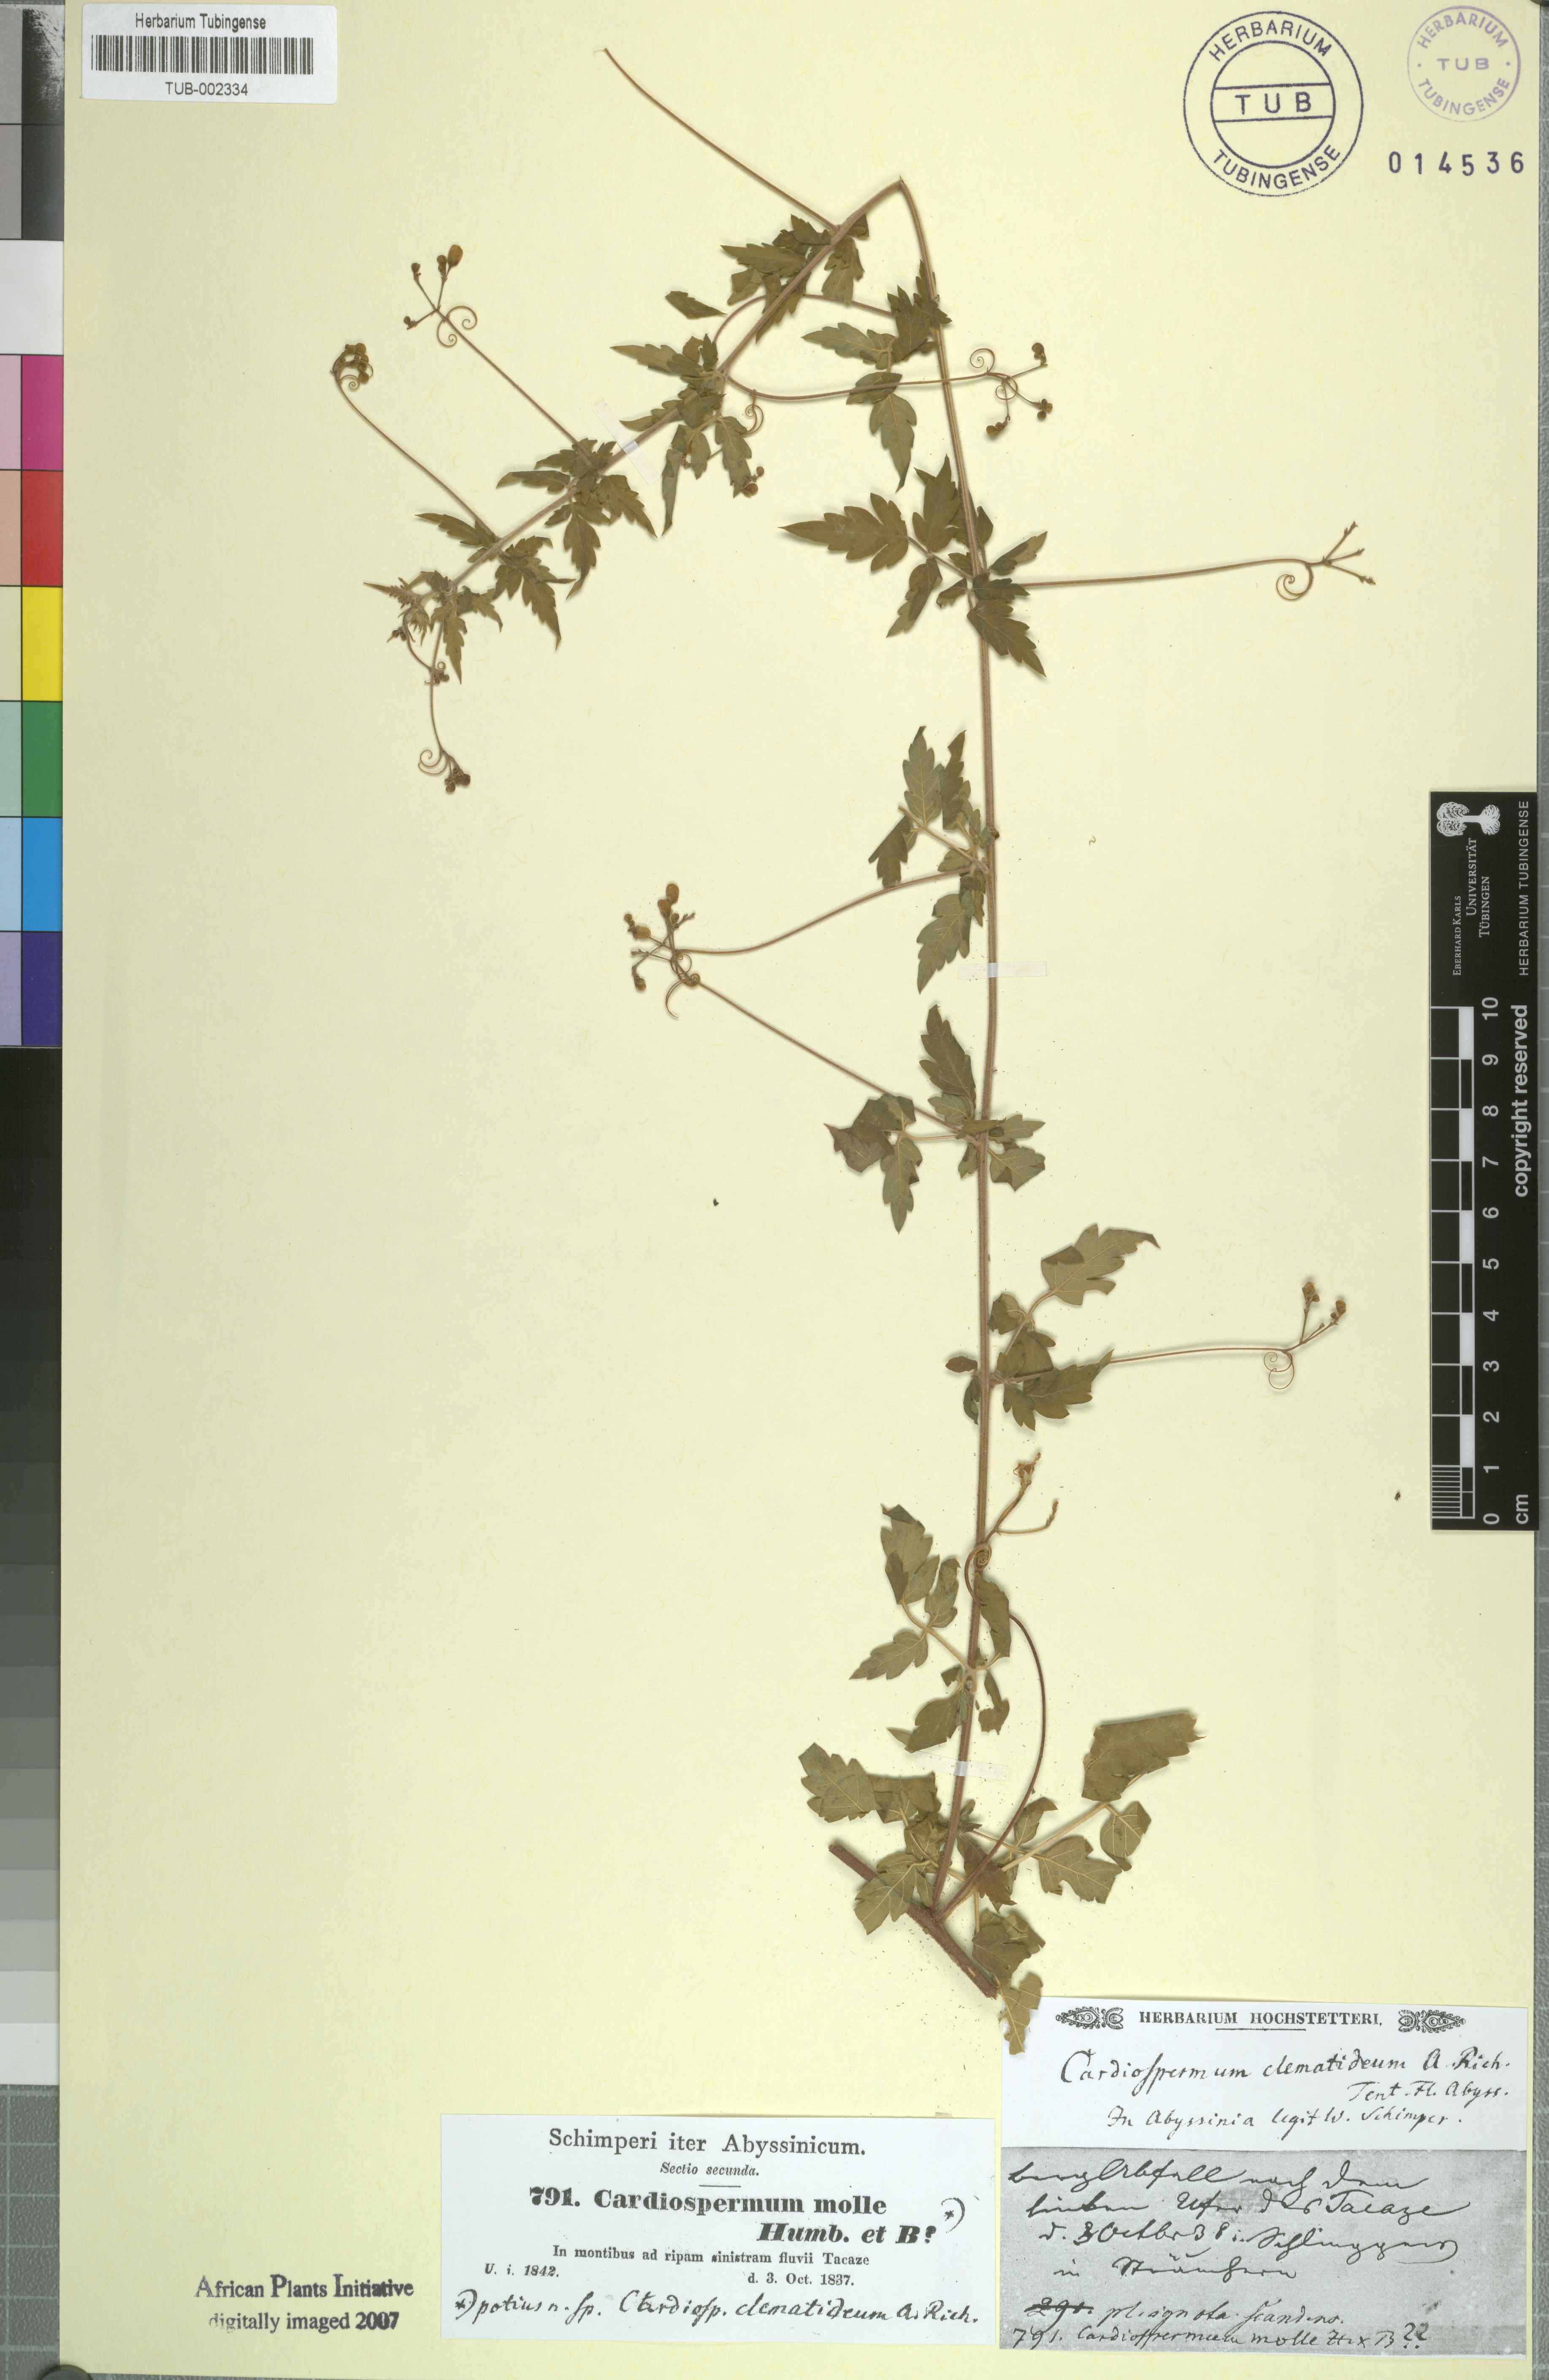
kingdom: Plantae
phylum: Tracheophyta
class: Magnoliopsida
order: Sapindales
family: Sapindaceae
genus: Cardiospermum
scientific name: Cardiospermum corindum
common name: Faux persil
